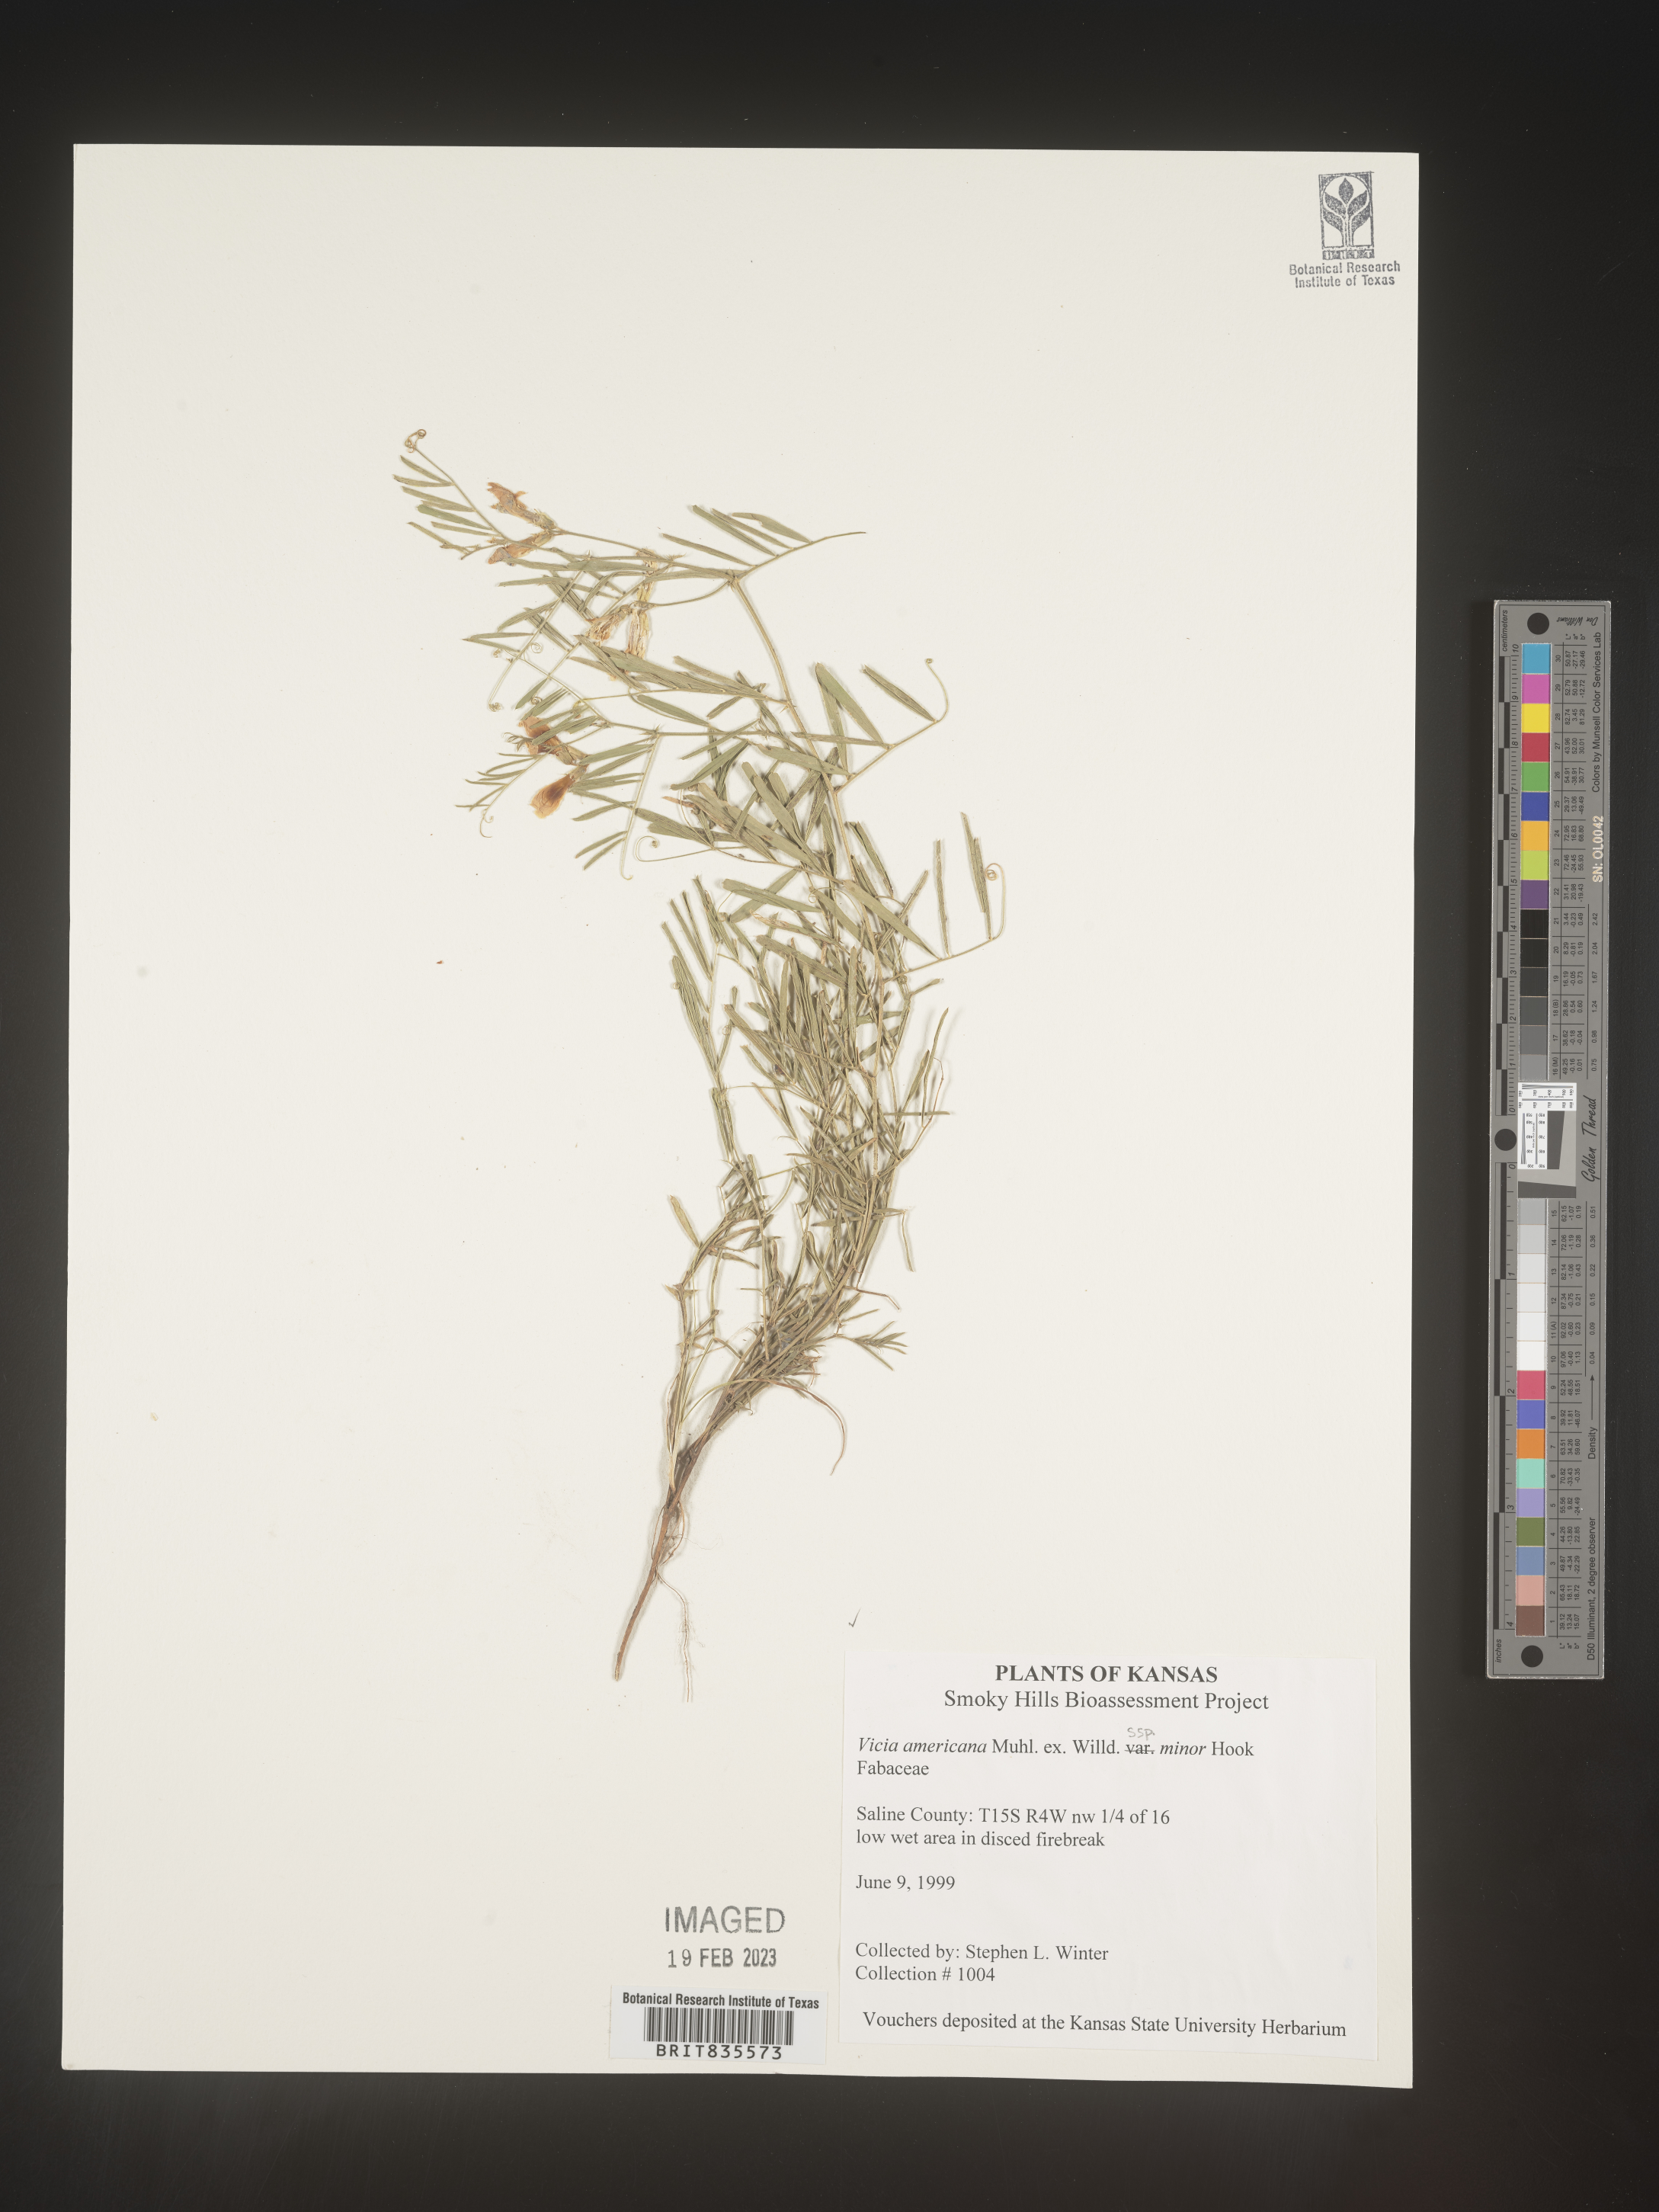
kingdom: Plantae
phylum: Tracheophyta
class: Magnoliopsida
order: Fabales
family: Fabaceae
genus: Vicia
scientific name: Vicia americana
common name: American vetch
